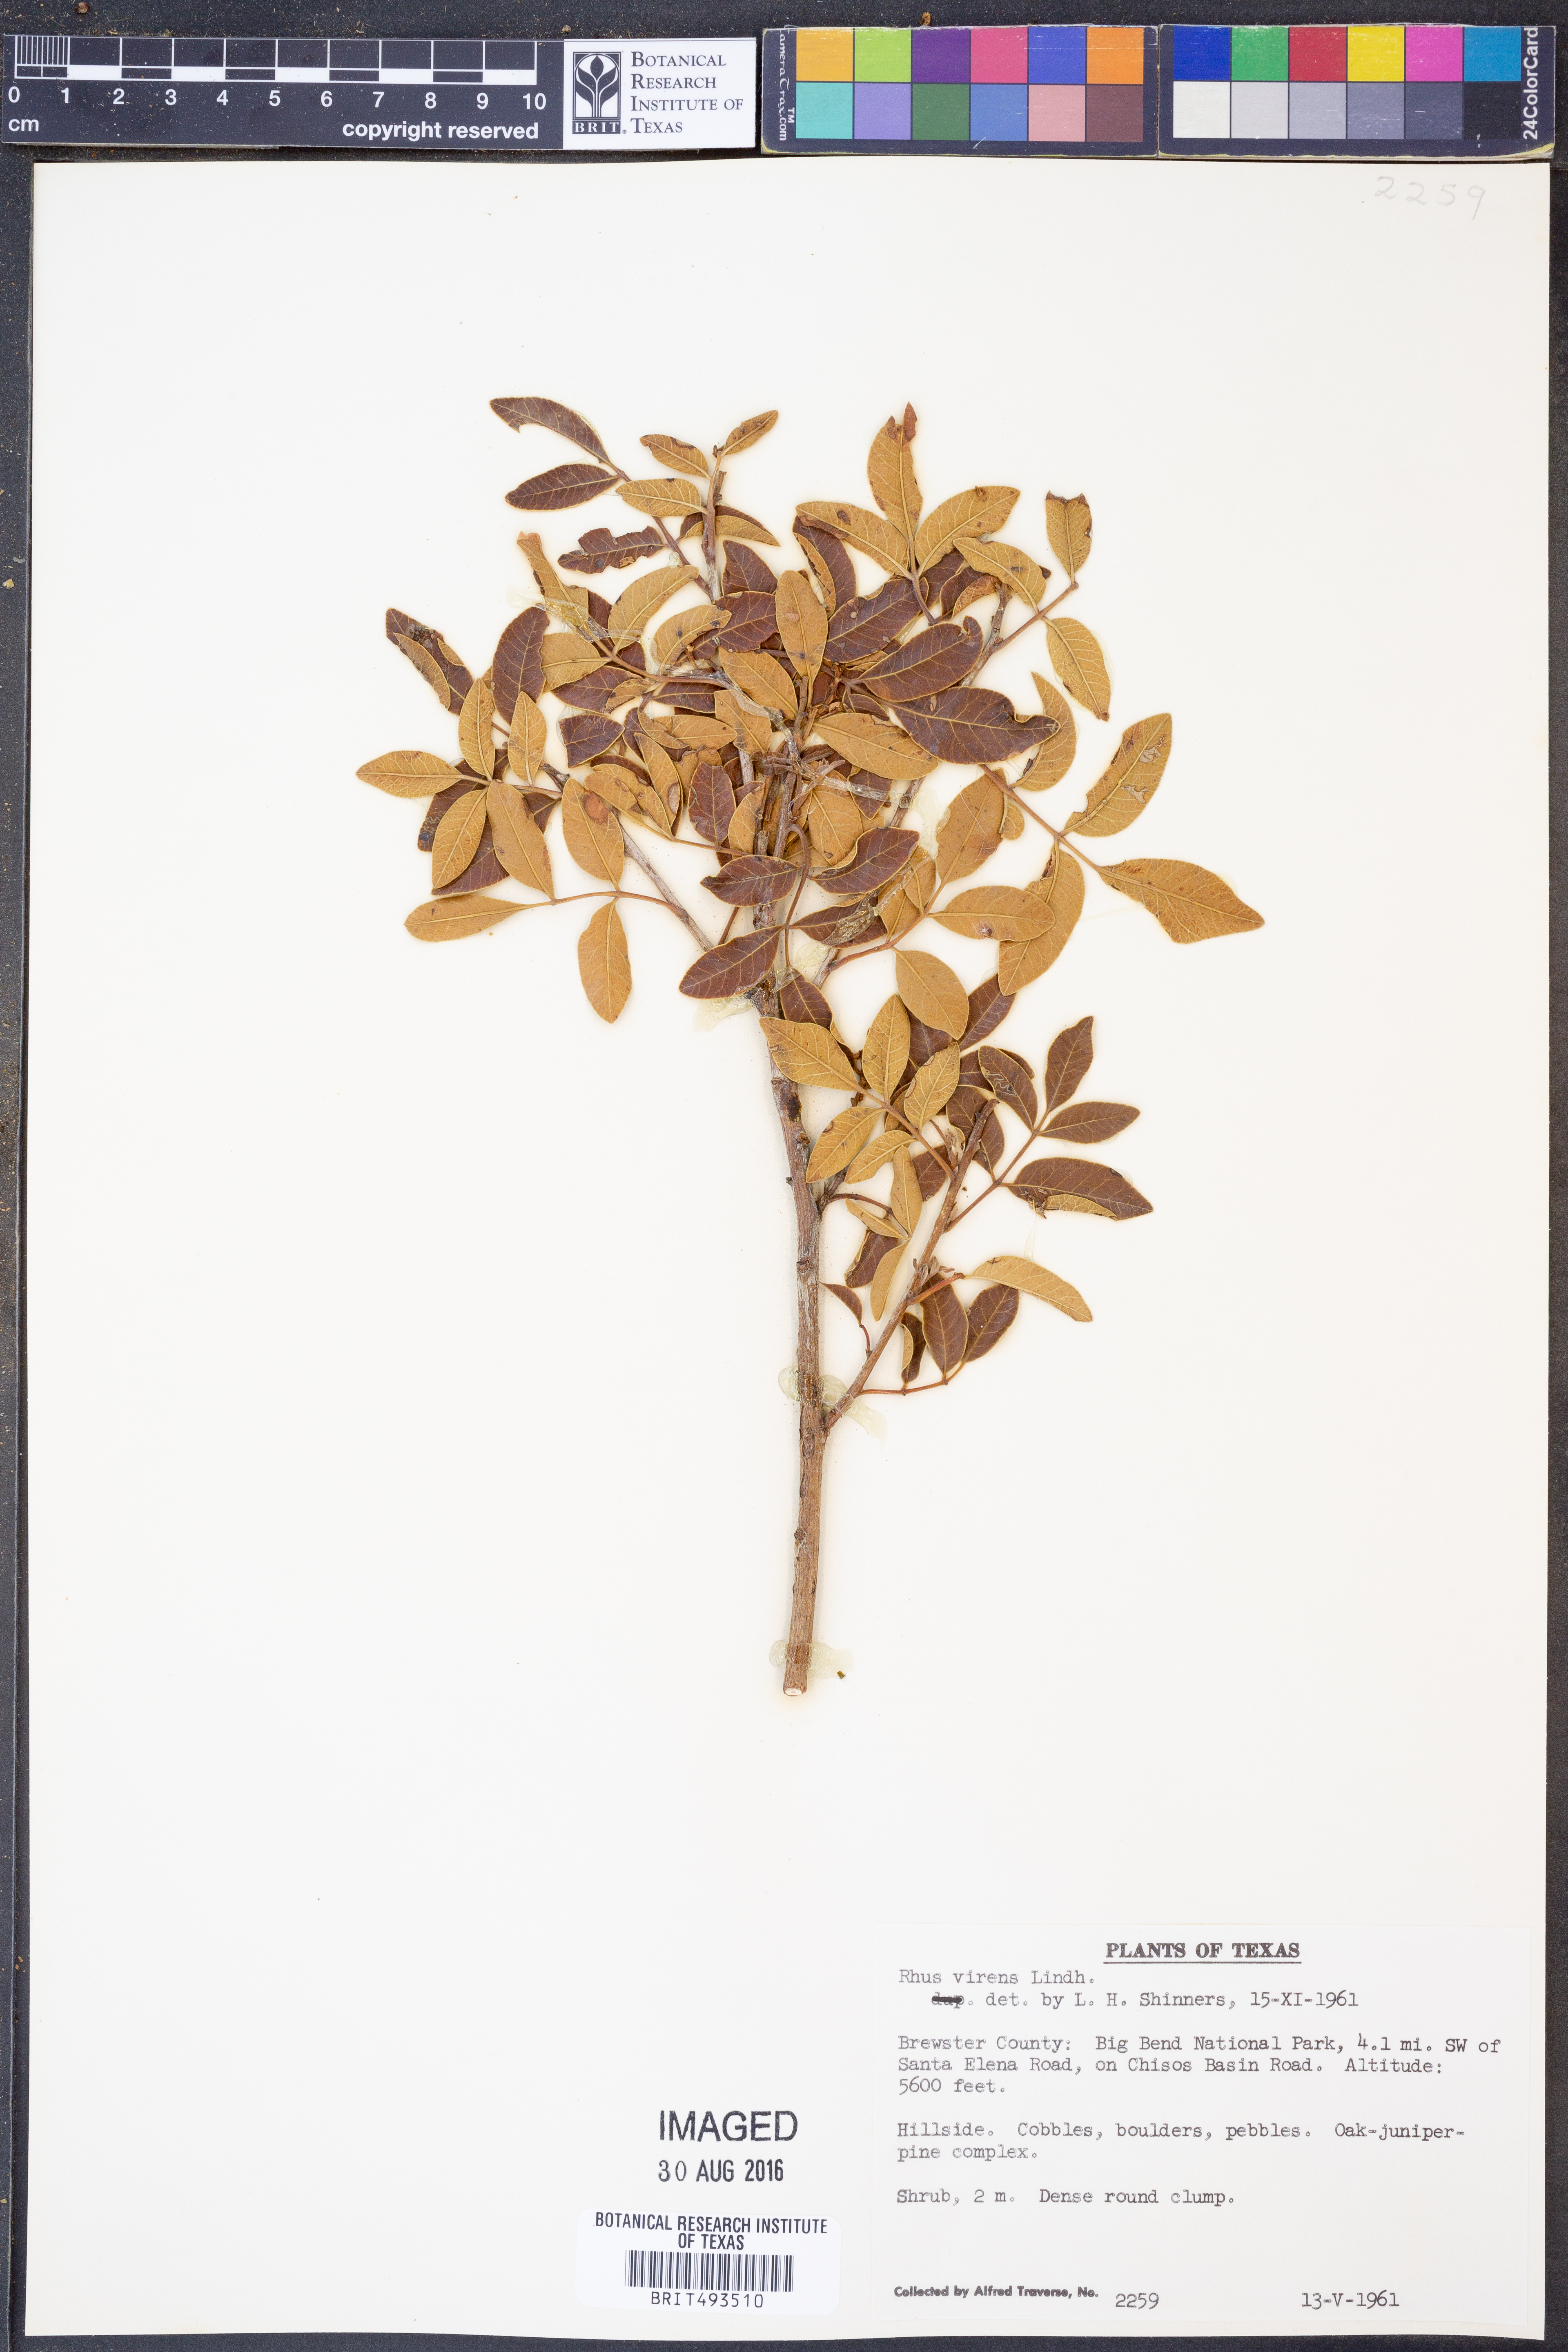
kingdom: Plantae
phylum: Tracheophyta
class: Magnoliopsida
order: Sapindales
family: Anacardiaceae
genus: Rhus
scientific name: Rhus virens
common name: Evergreen sumac
